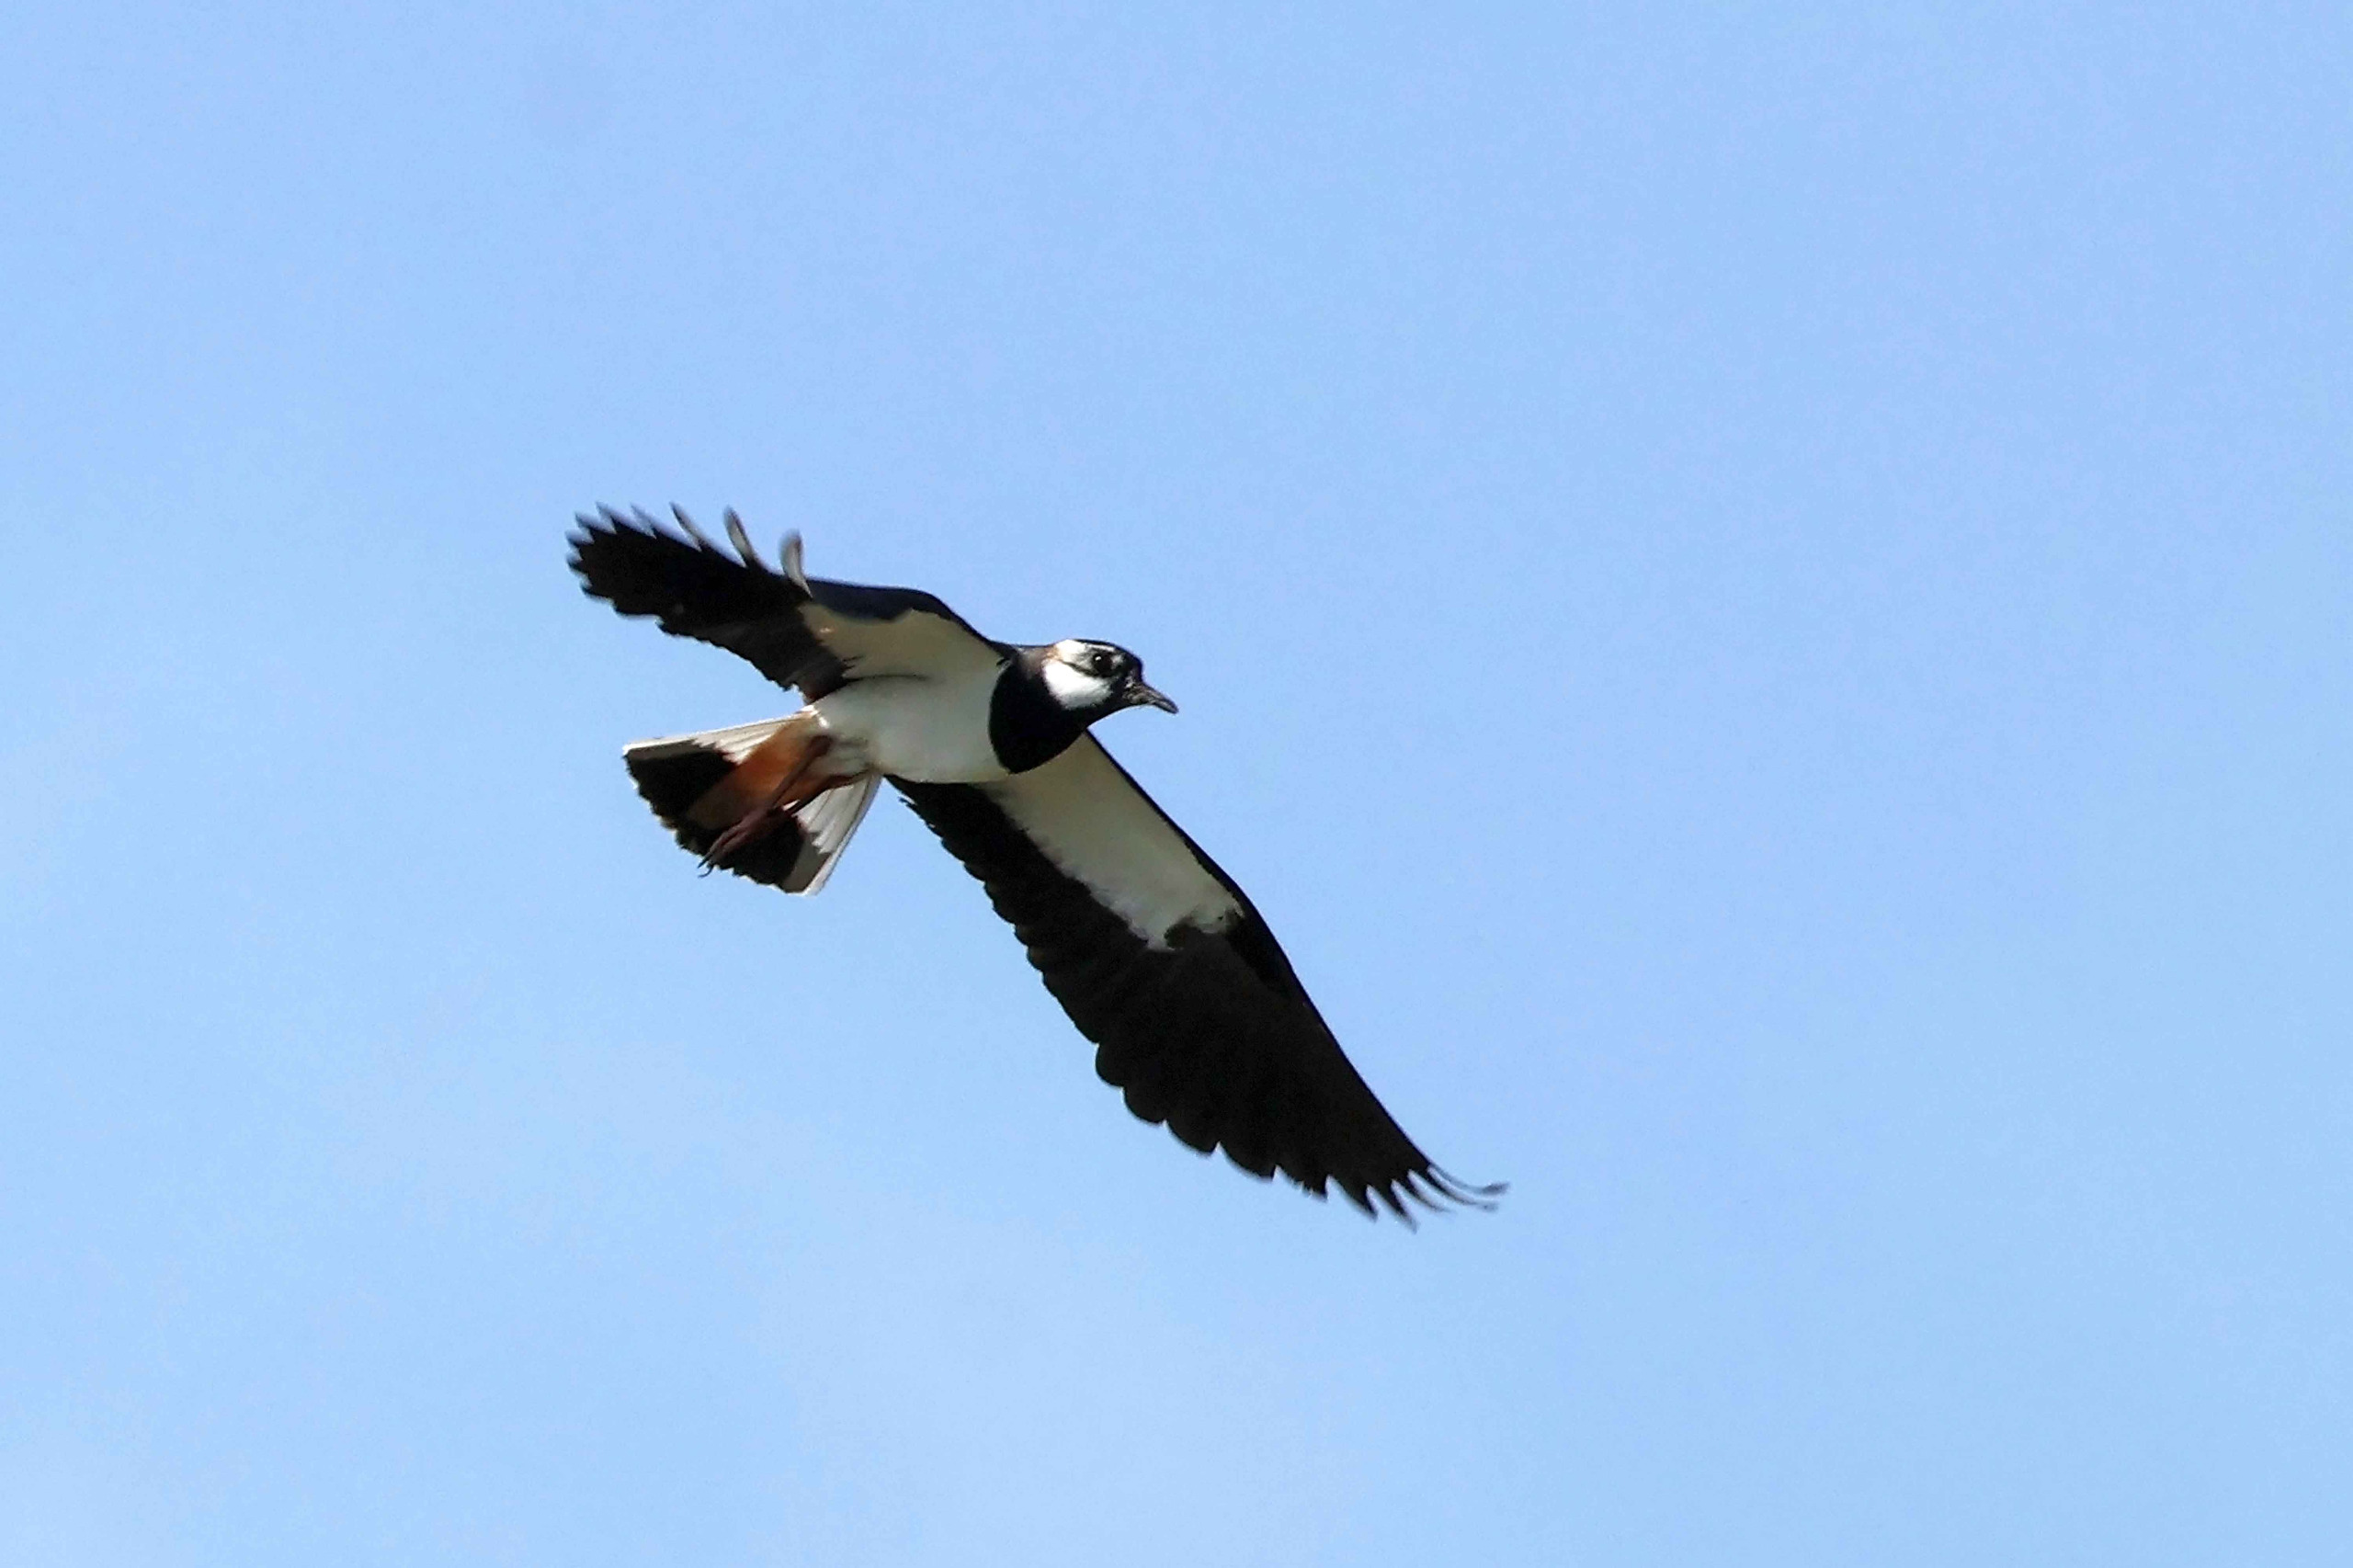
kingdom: Animalia
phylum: Chordata
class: Aves
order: Charadriiformes
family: Charadriidae
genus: Vanellus
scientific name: Vanellus vanellus
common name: Vibe
